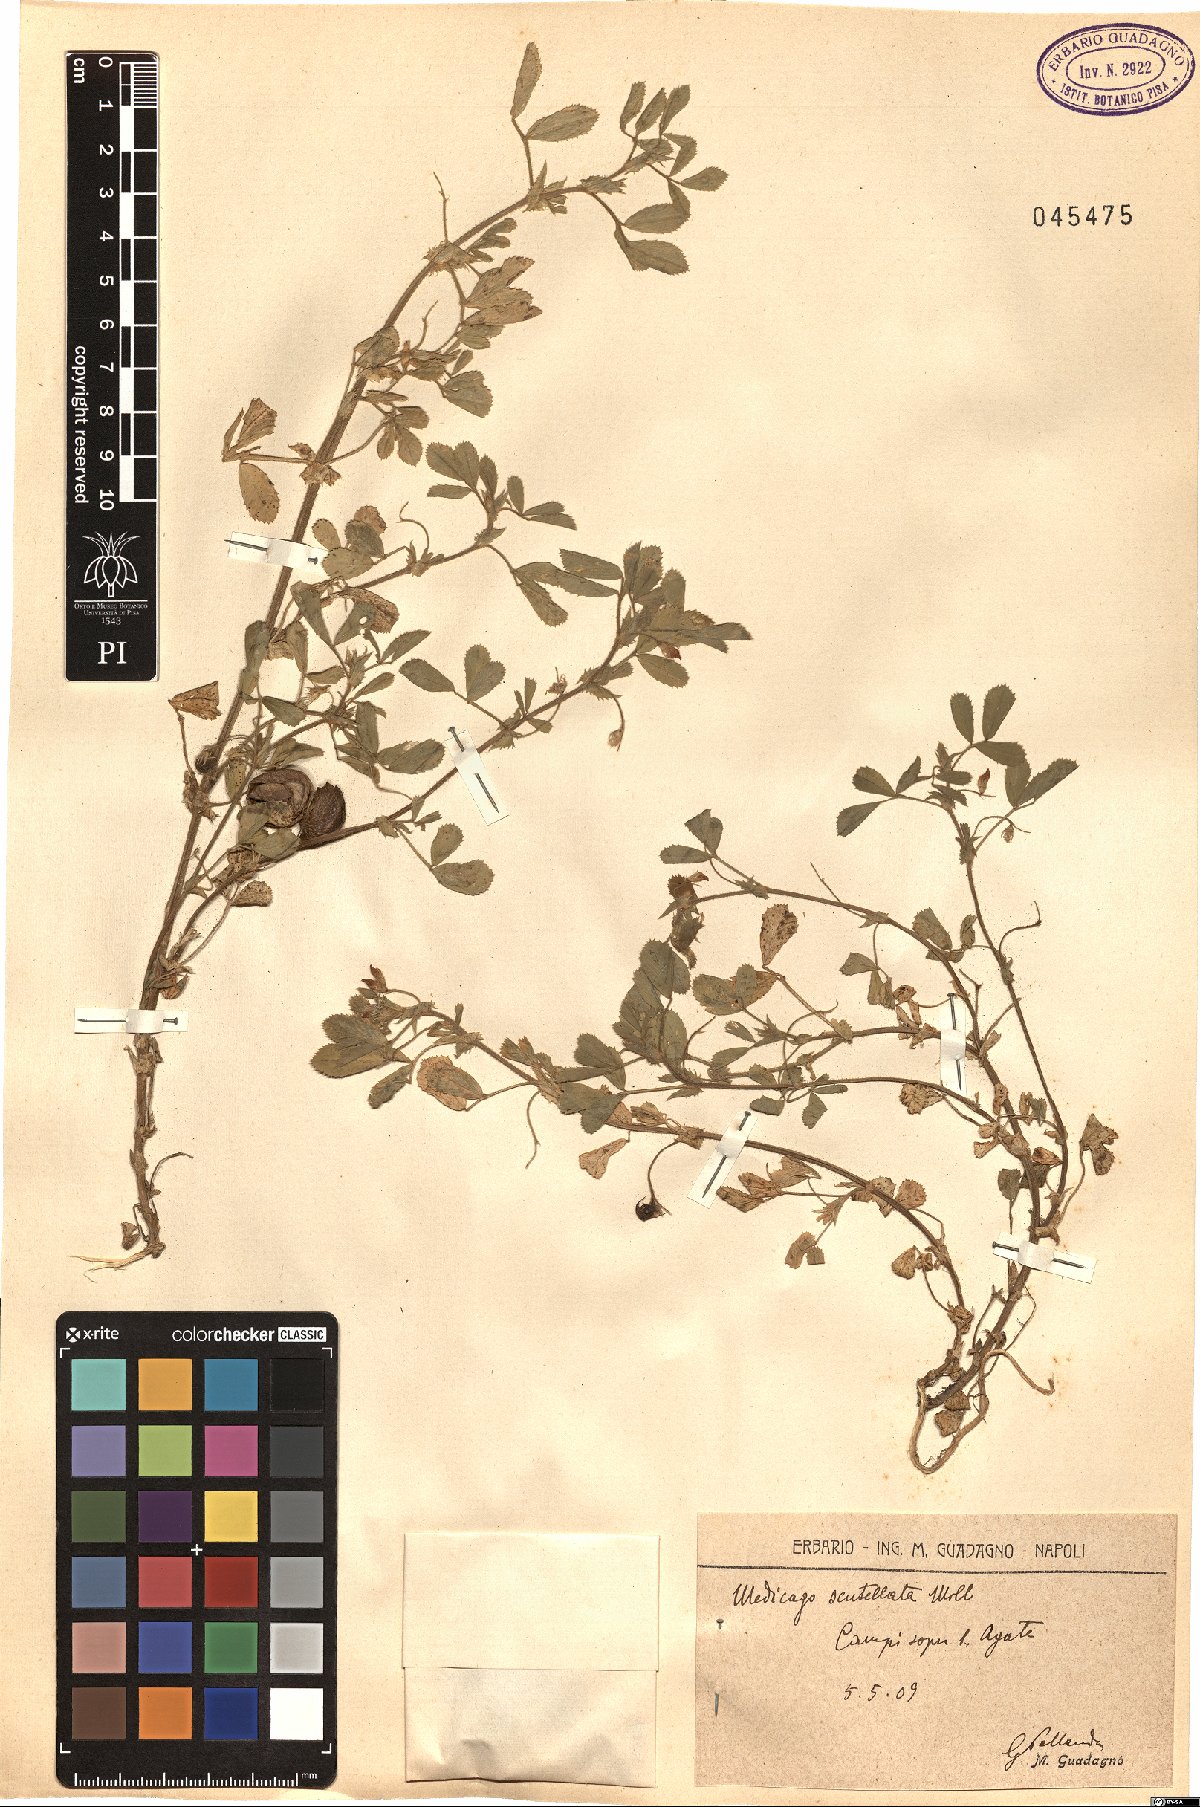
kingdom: Plantae
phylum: Tracheophyta
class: Magnoliopsida
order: Fabales
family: Fabaceae
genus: Medicago
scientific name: Medicago scutellata
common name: Snail medick
